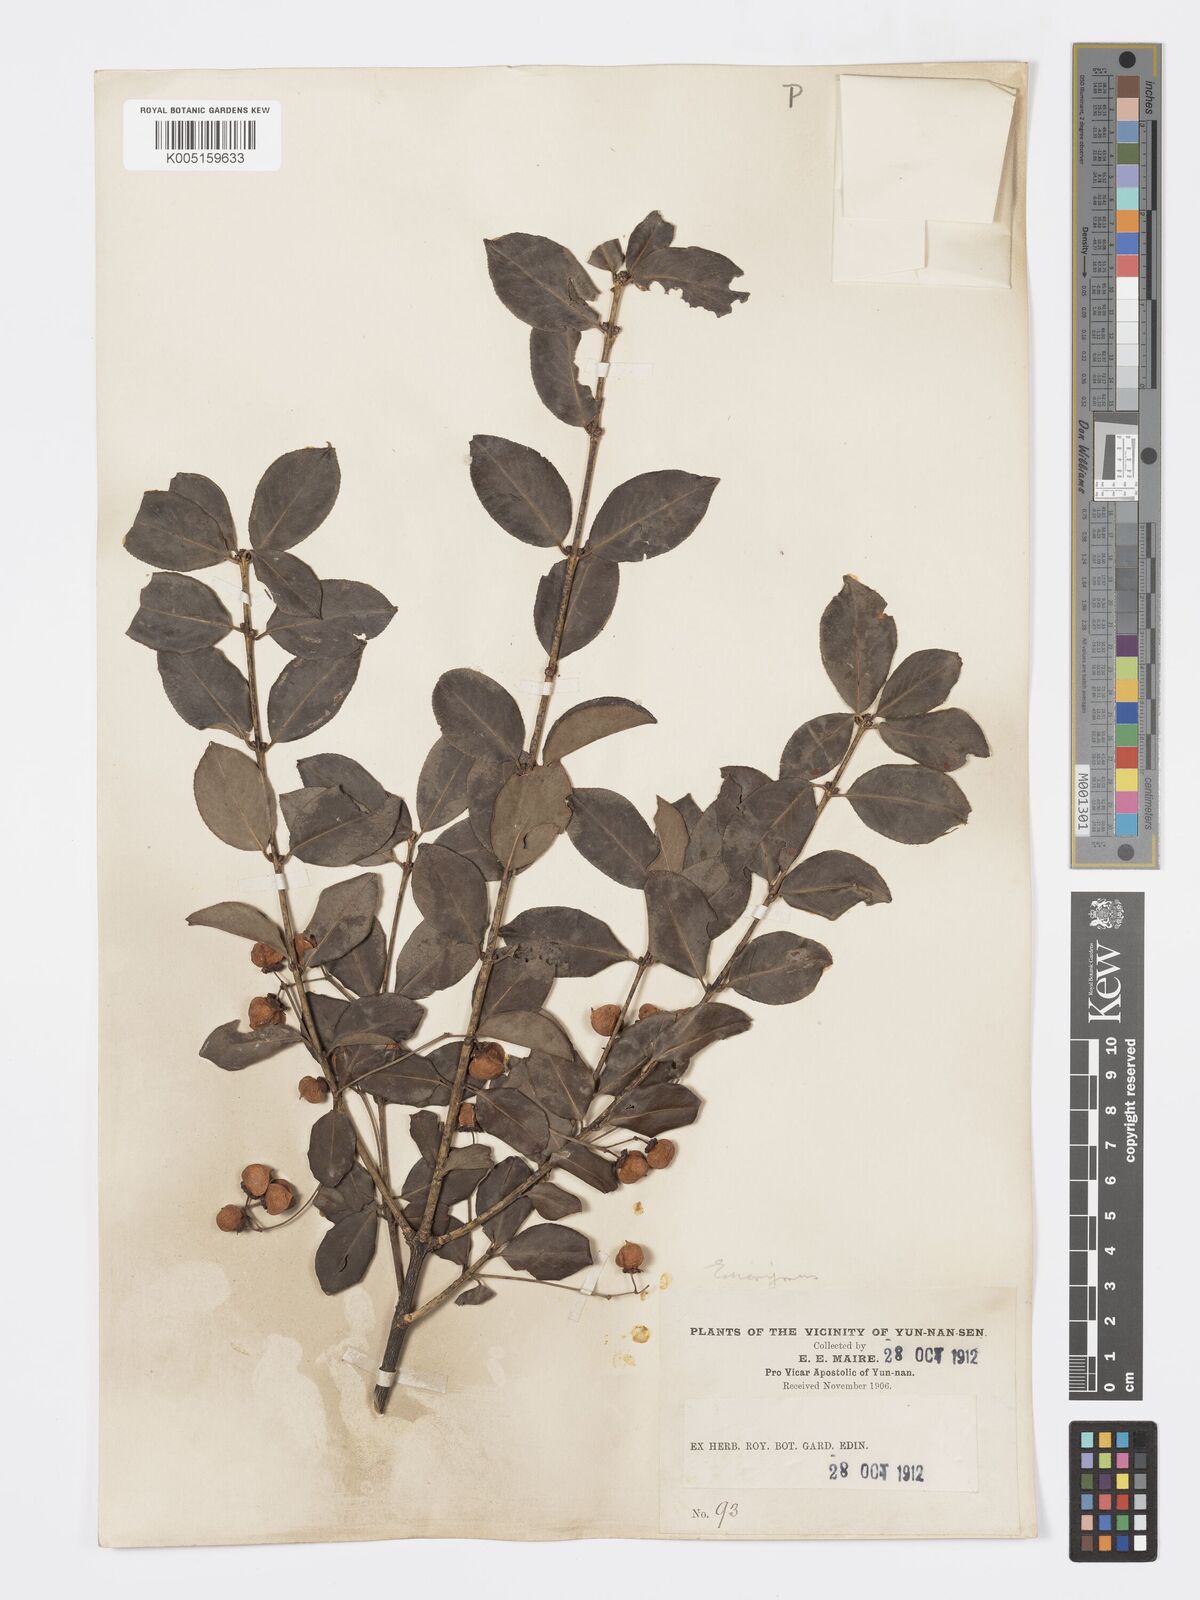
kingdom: Plantae
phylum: Tracheophyta
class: Magnoliopsida
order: Celastrales
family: Celastraceae
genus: Euonymus
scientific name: Euonymus grandiflorus
